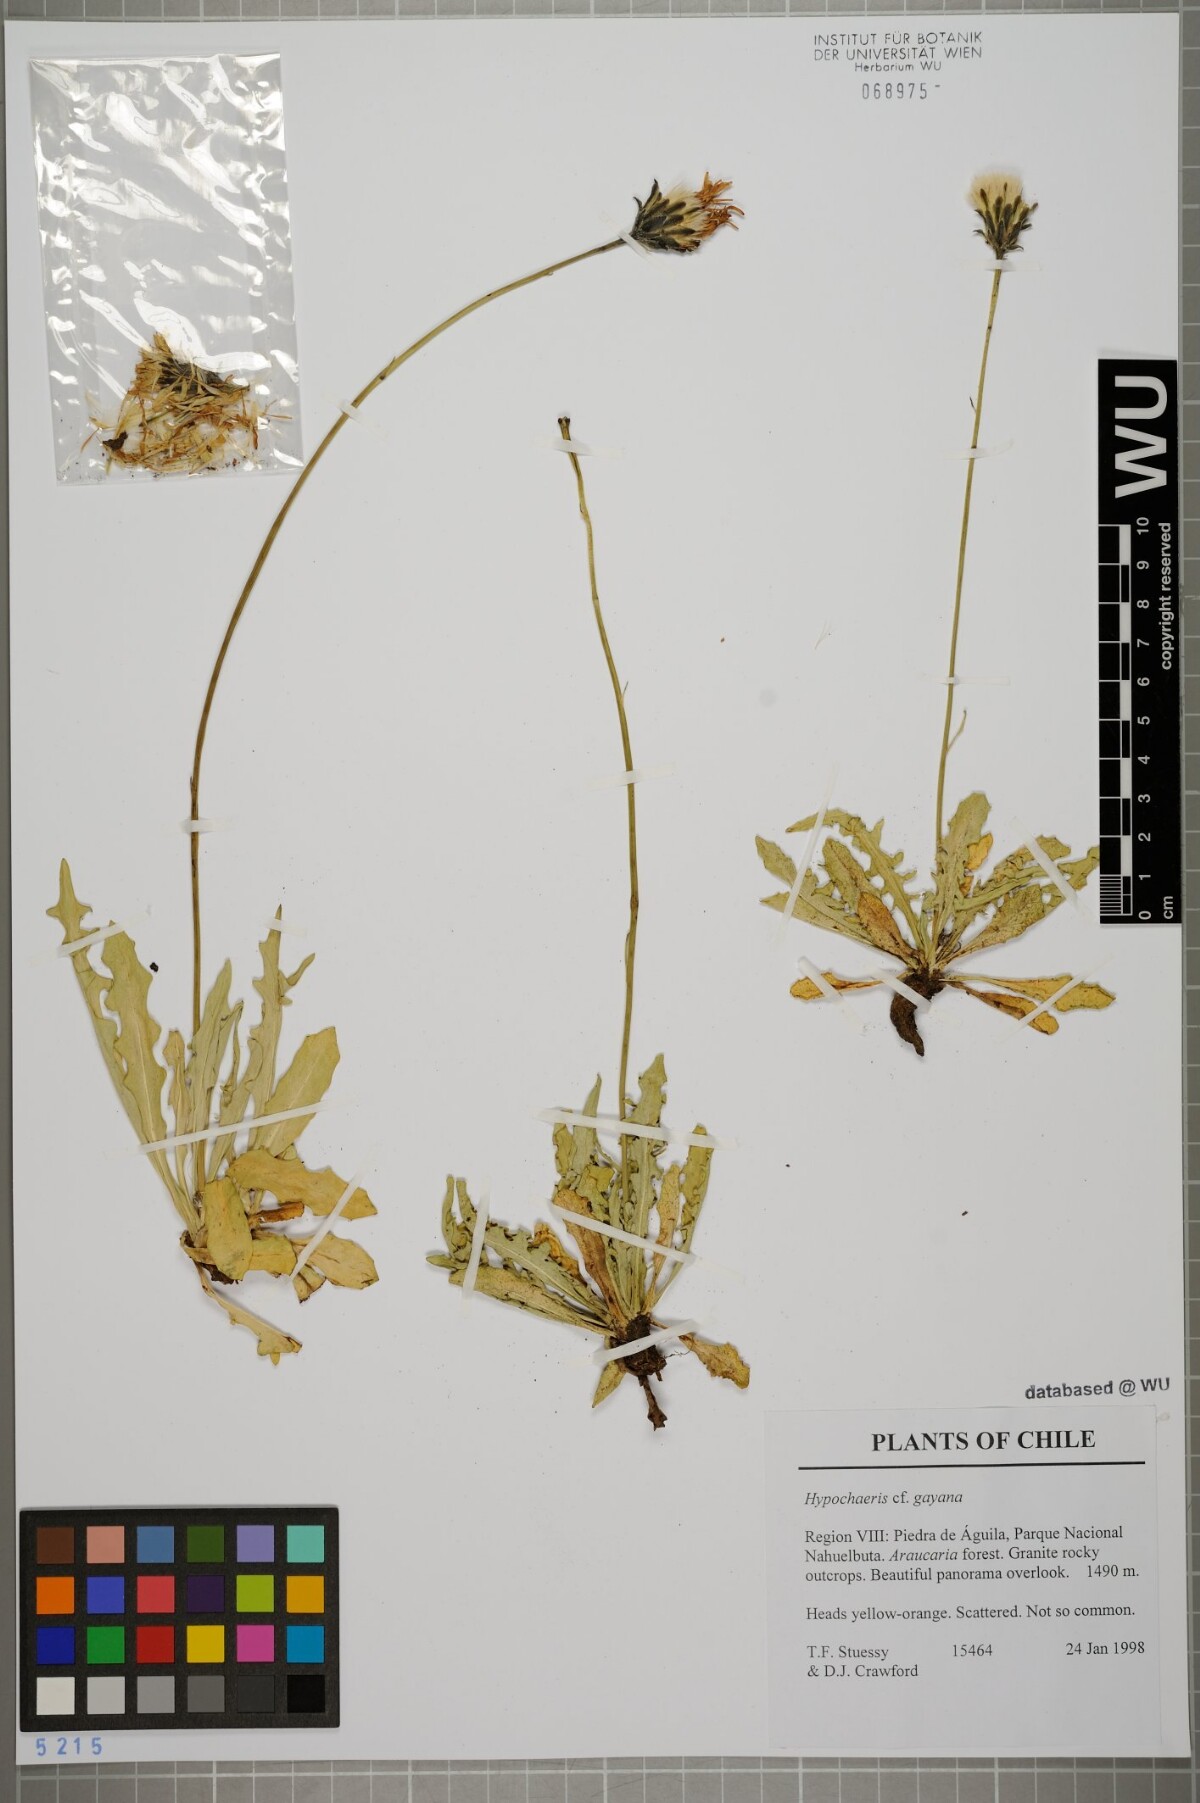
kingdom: Plantae
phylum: Tracheophyta
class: Magnoliopsida
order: Asterales
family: Asteraceae
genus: Hypochaeris
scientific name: Hypochaeris melanolepis
